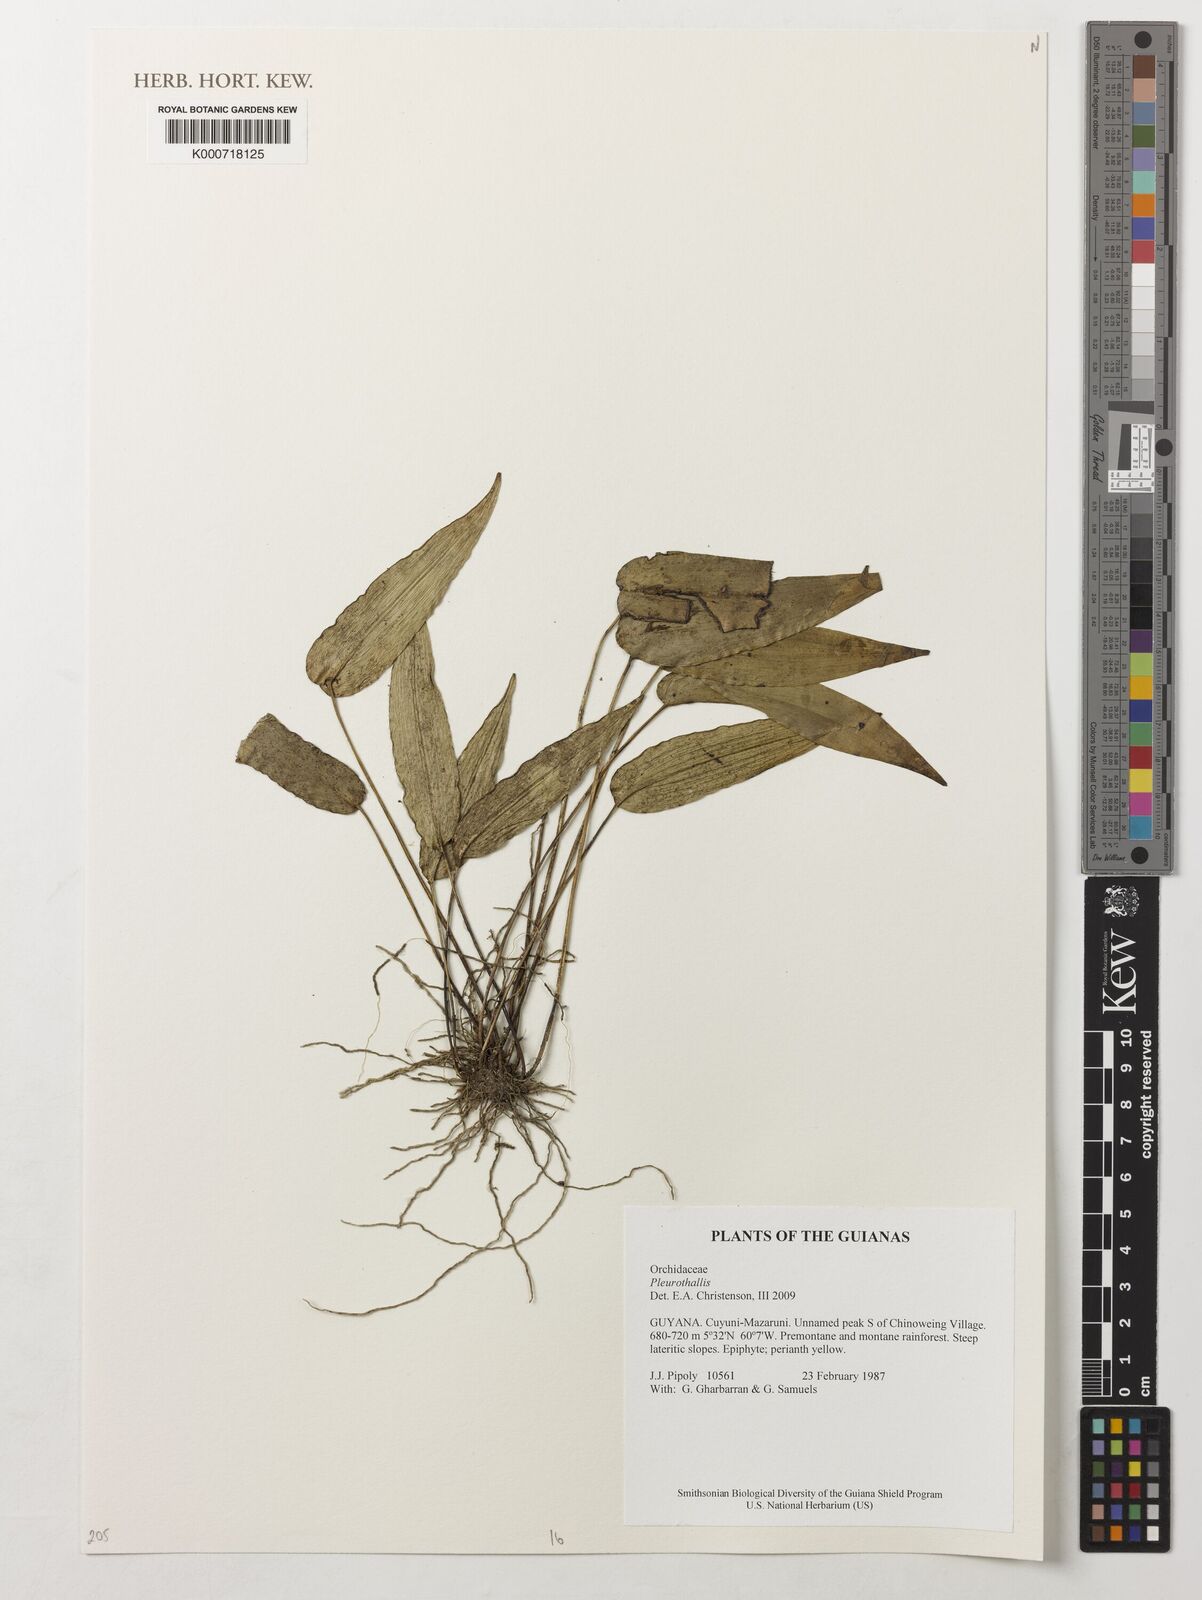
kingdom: Plantae
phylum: Tracheophyta
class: Liliopsida
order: Asparagales
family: Orchidaceae
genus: Pleurothallis
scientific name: Pleurothallis
